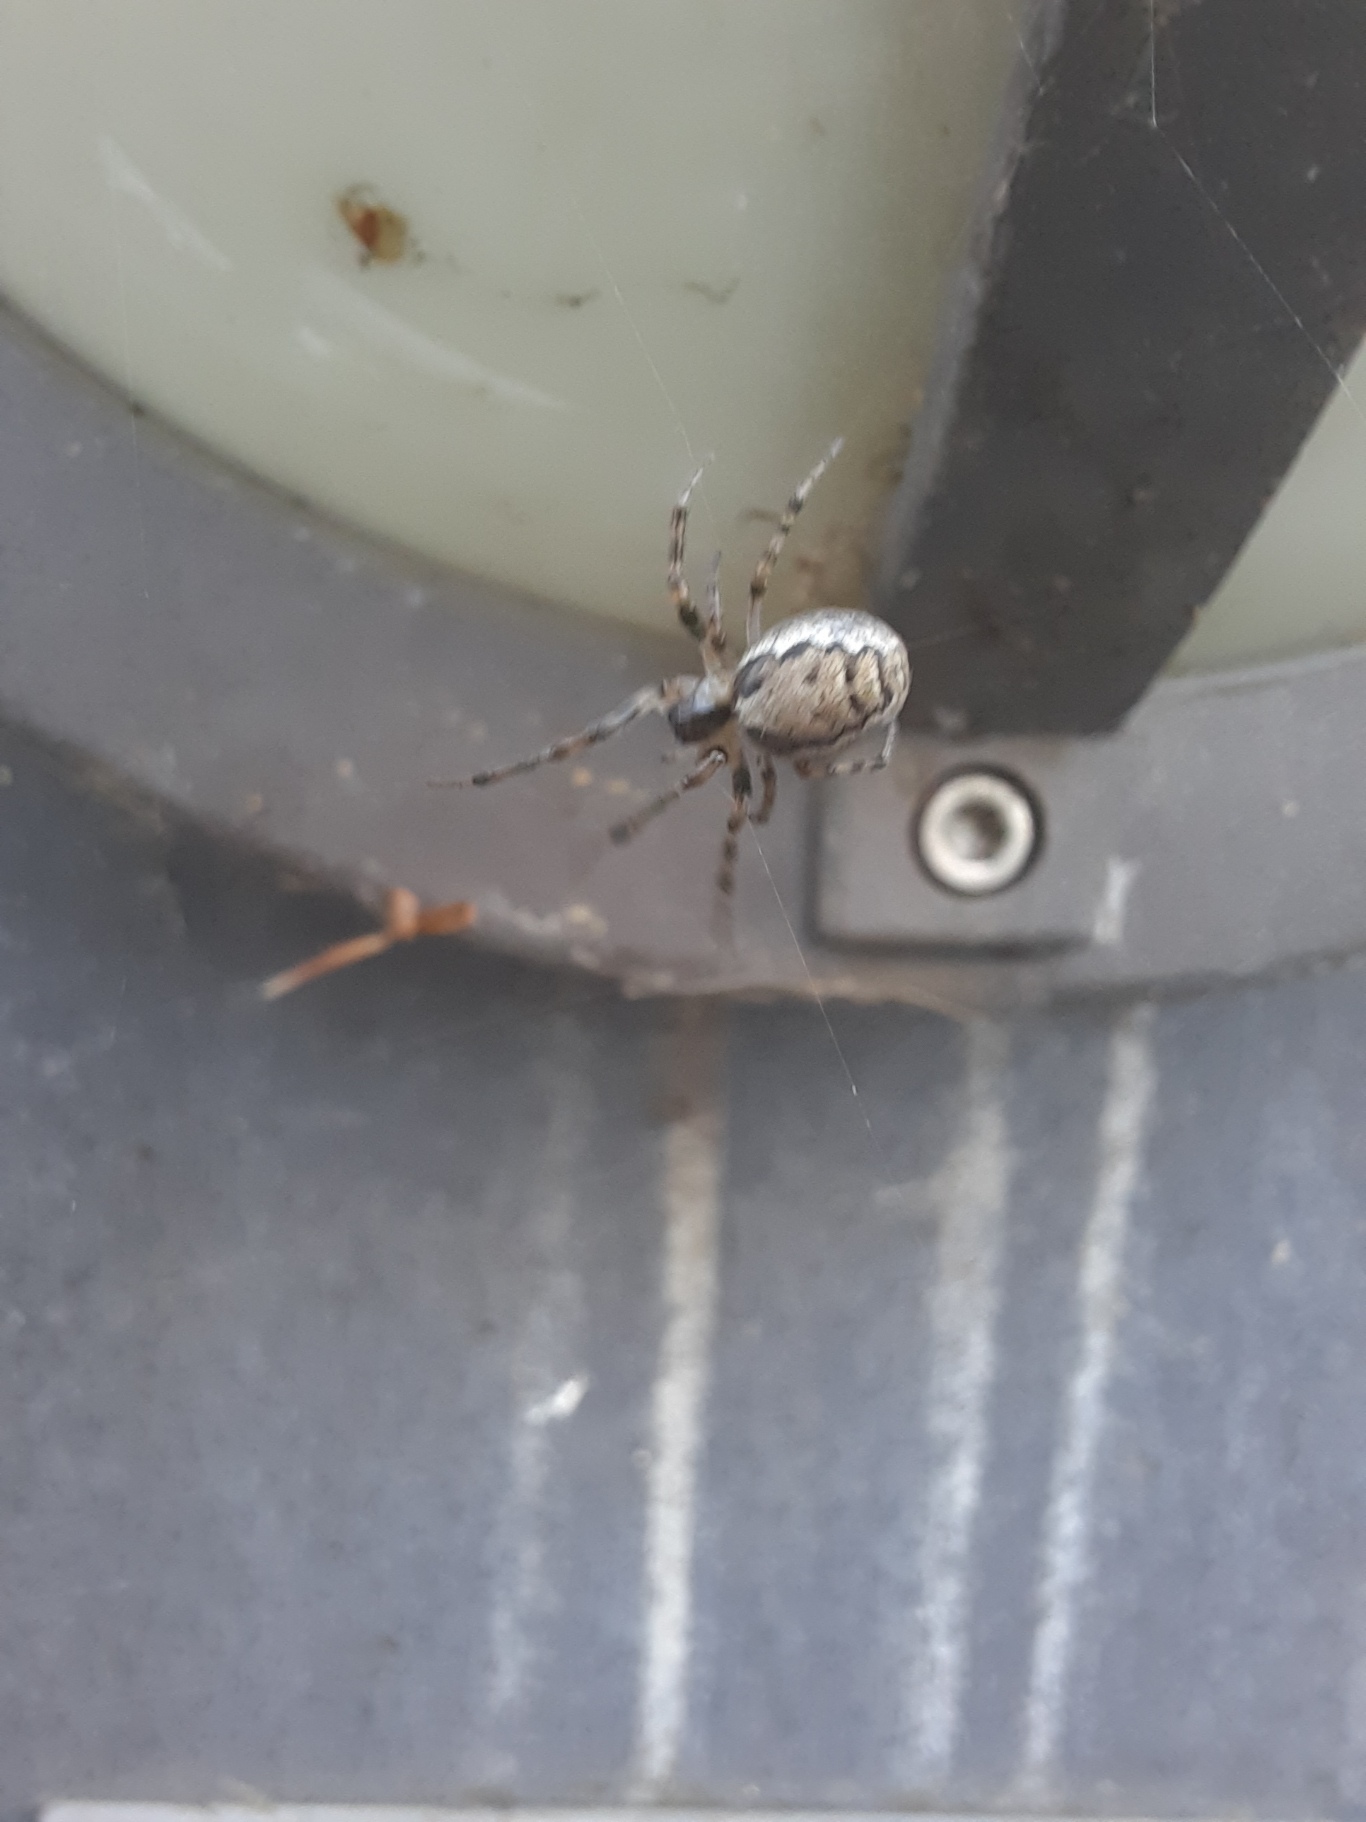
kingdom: Animalia
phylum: Arthropoda
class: Arachnida
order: Araneae
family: Araneidae
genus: Zygiella
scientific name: Zygiella x-notata
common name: Grå sektoredderkop
